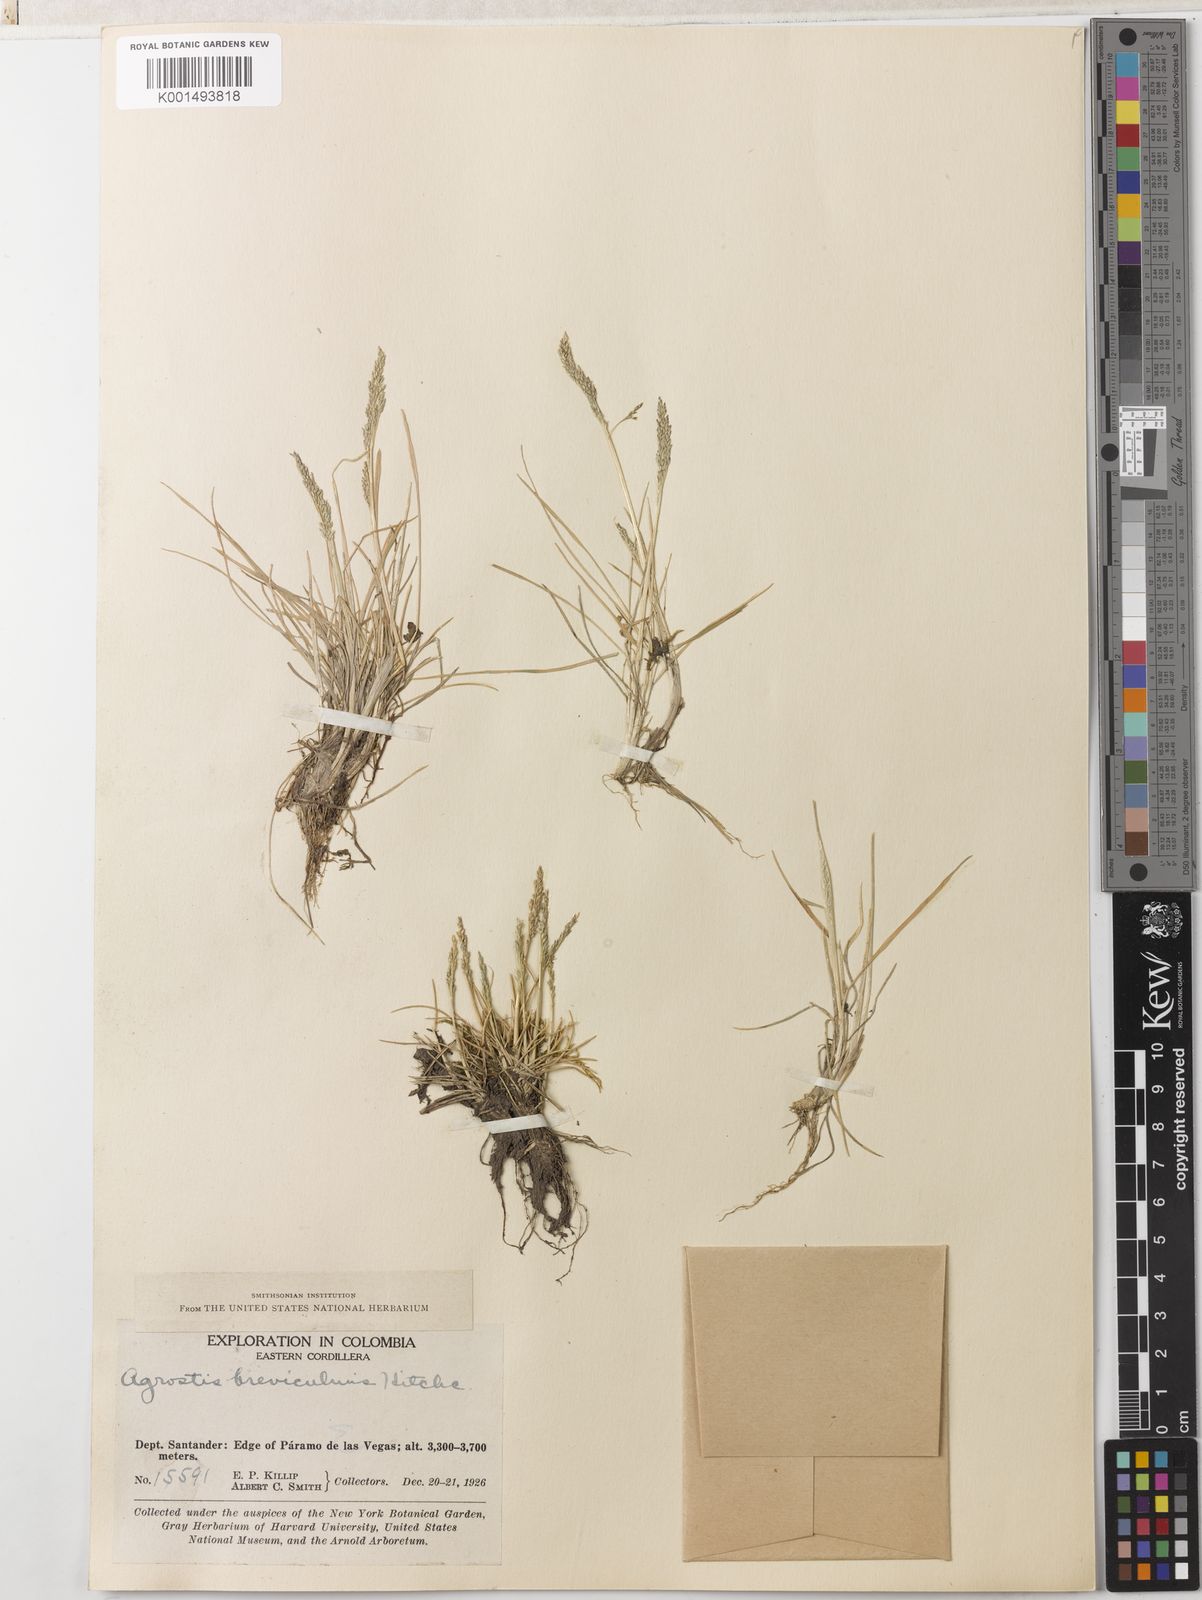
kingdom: Plantae
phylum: Tracheophyta
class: Liliopsida
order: Poales
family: Poaceae
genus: Agrostis
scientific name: Agrostis breviculmis
